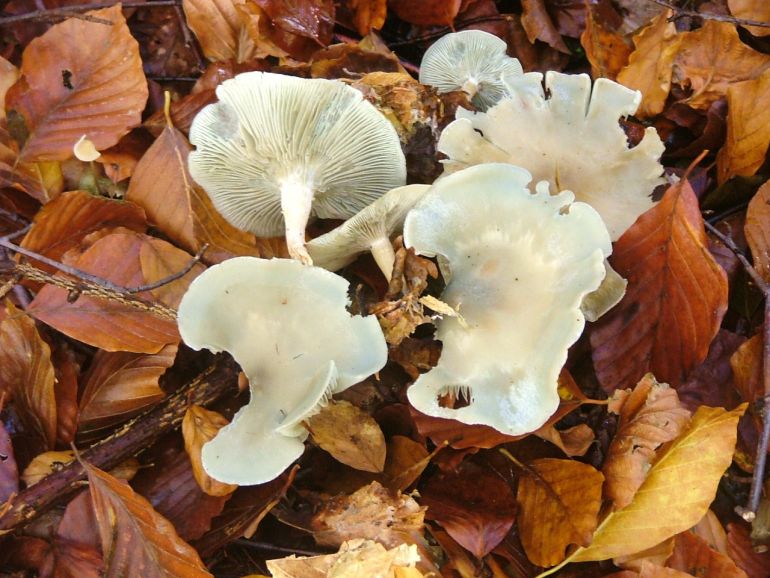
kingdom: Fungi
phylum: Basidiomycota
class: Agaricomycetes
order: Agaricales
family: Tricholomataceae
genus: Clitocybe
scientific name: Clitocybe odora
